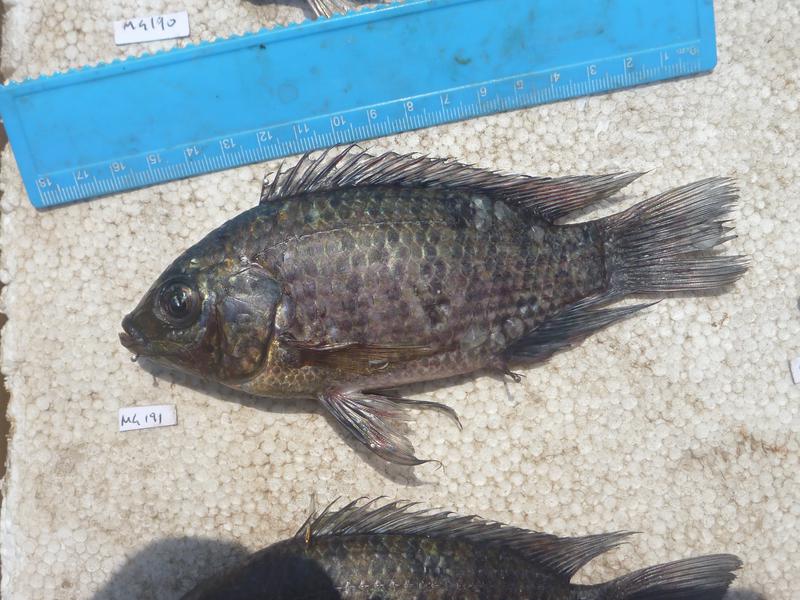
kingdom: Animalia
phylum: Chordata
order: Perciformes
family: Cichlidae
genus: Oreochromis
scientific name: Oreochromis leucostictus
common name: Blue spotted tilapia
